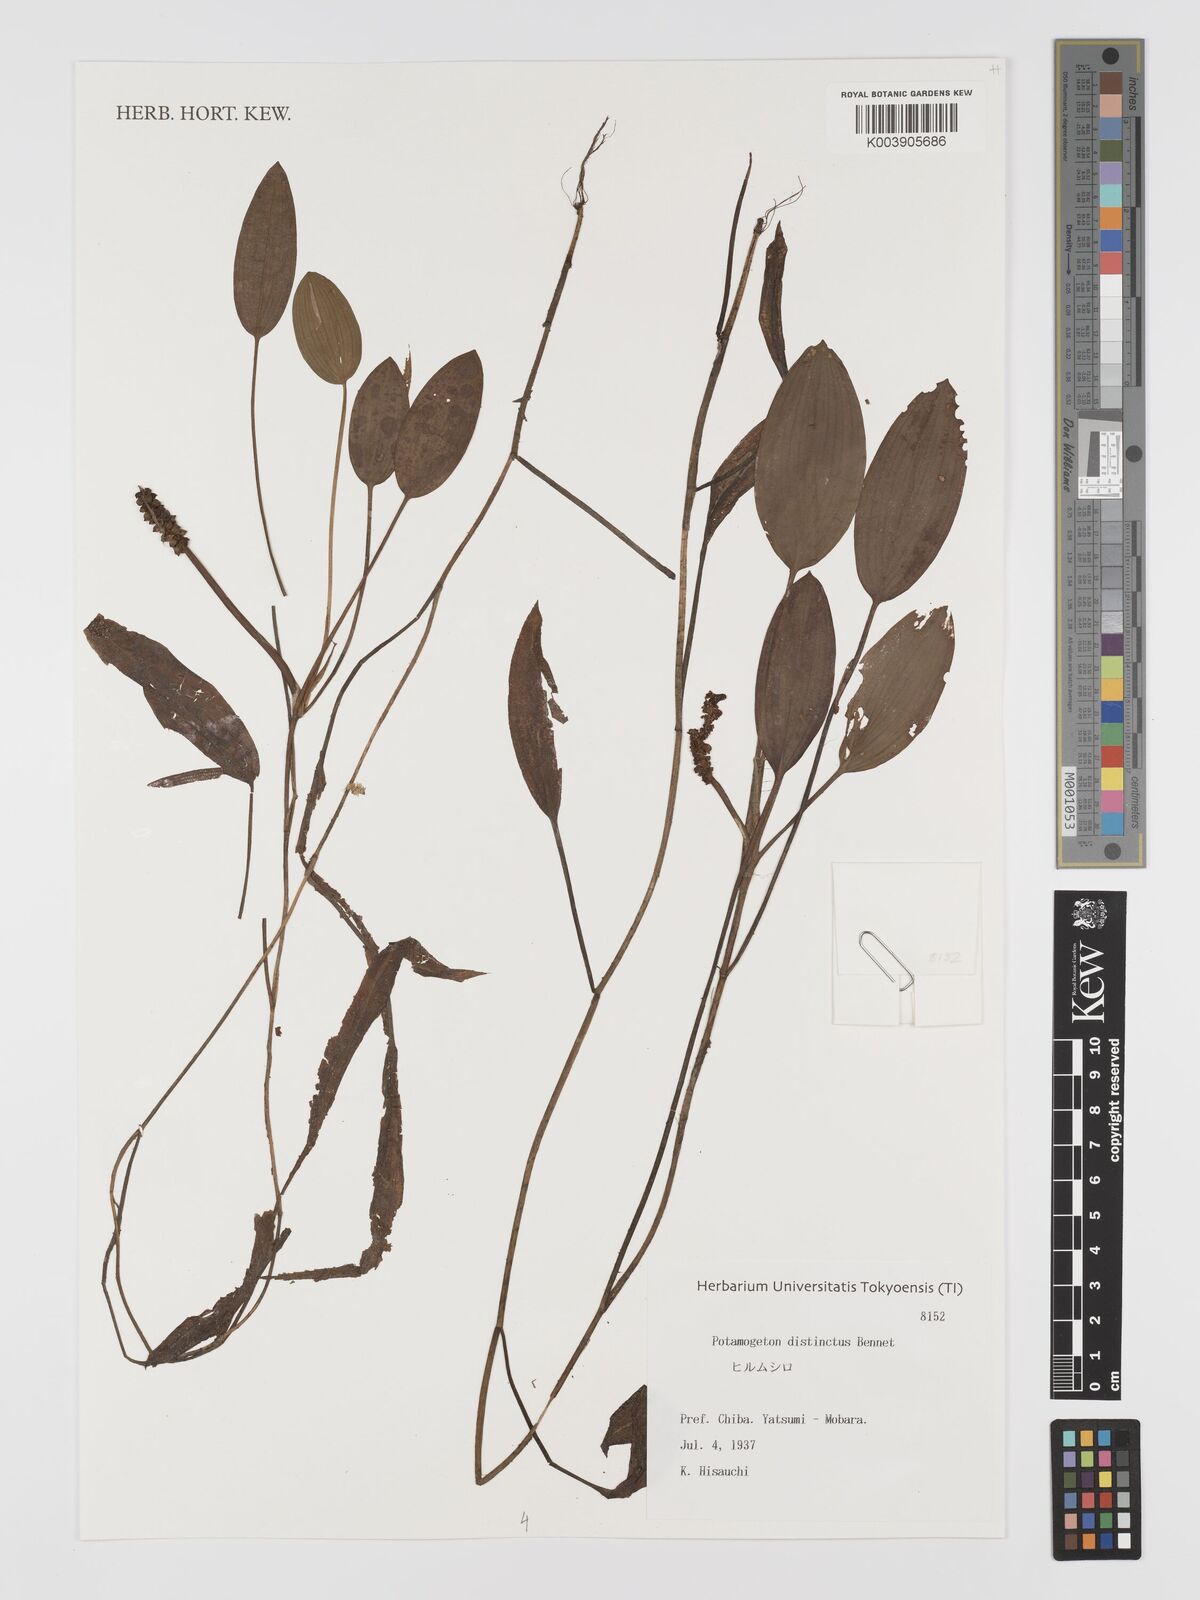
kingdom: Plantae
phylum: Tracheophyta
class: Liliopsida
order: Alismatales
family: Potamogetonaceae
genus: Potamogeton
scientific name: Potamogeton distinctus
